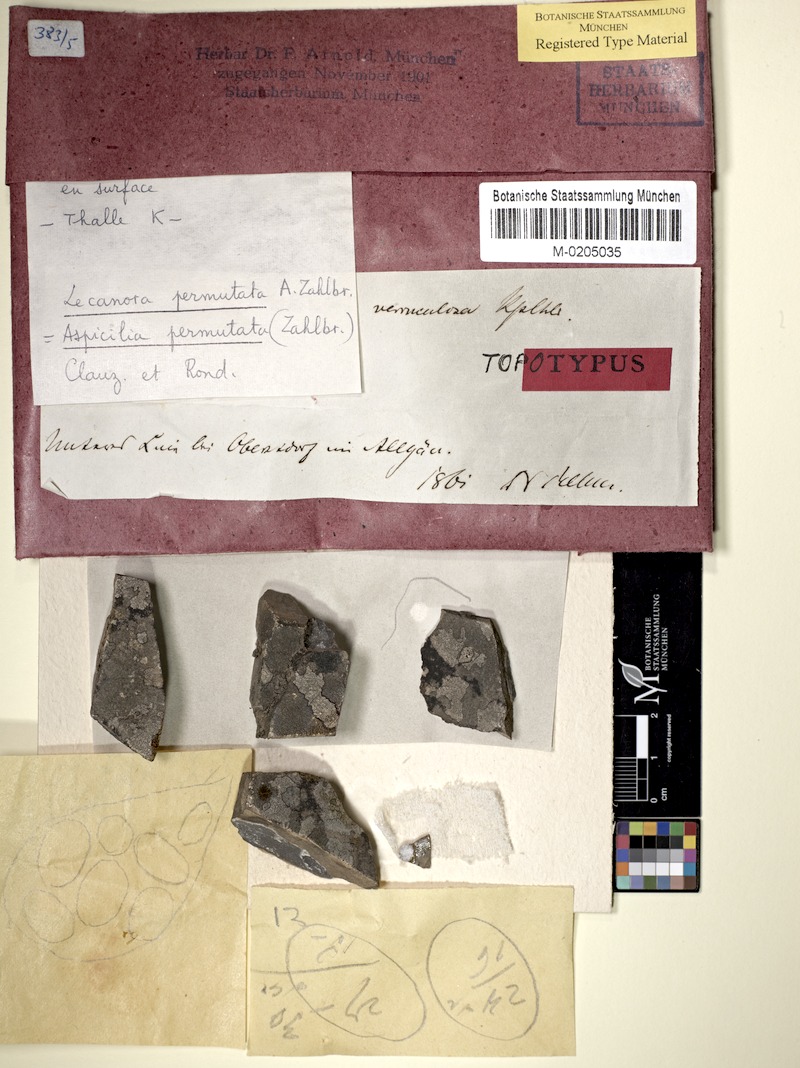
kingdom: Fungi
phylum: Ascomycota
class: Lecanoromycetes
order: Pertusariales
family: Megasporaceae
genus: Oxneriaria
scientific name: Oxneriaria verruculosa
